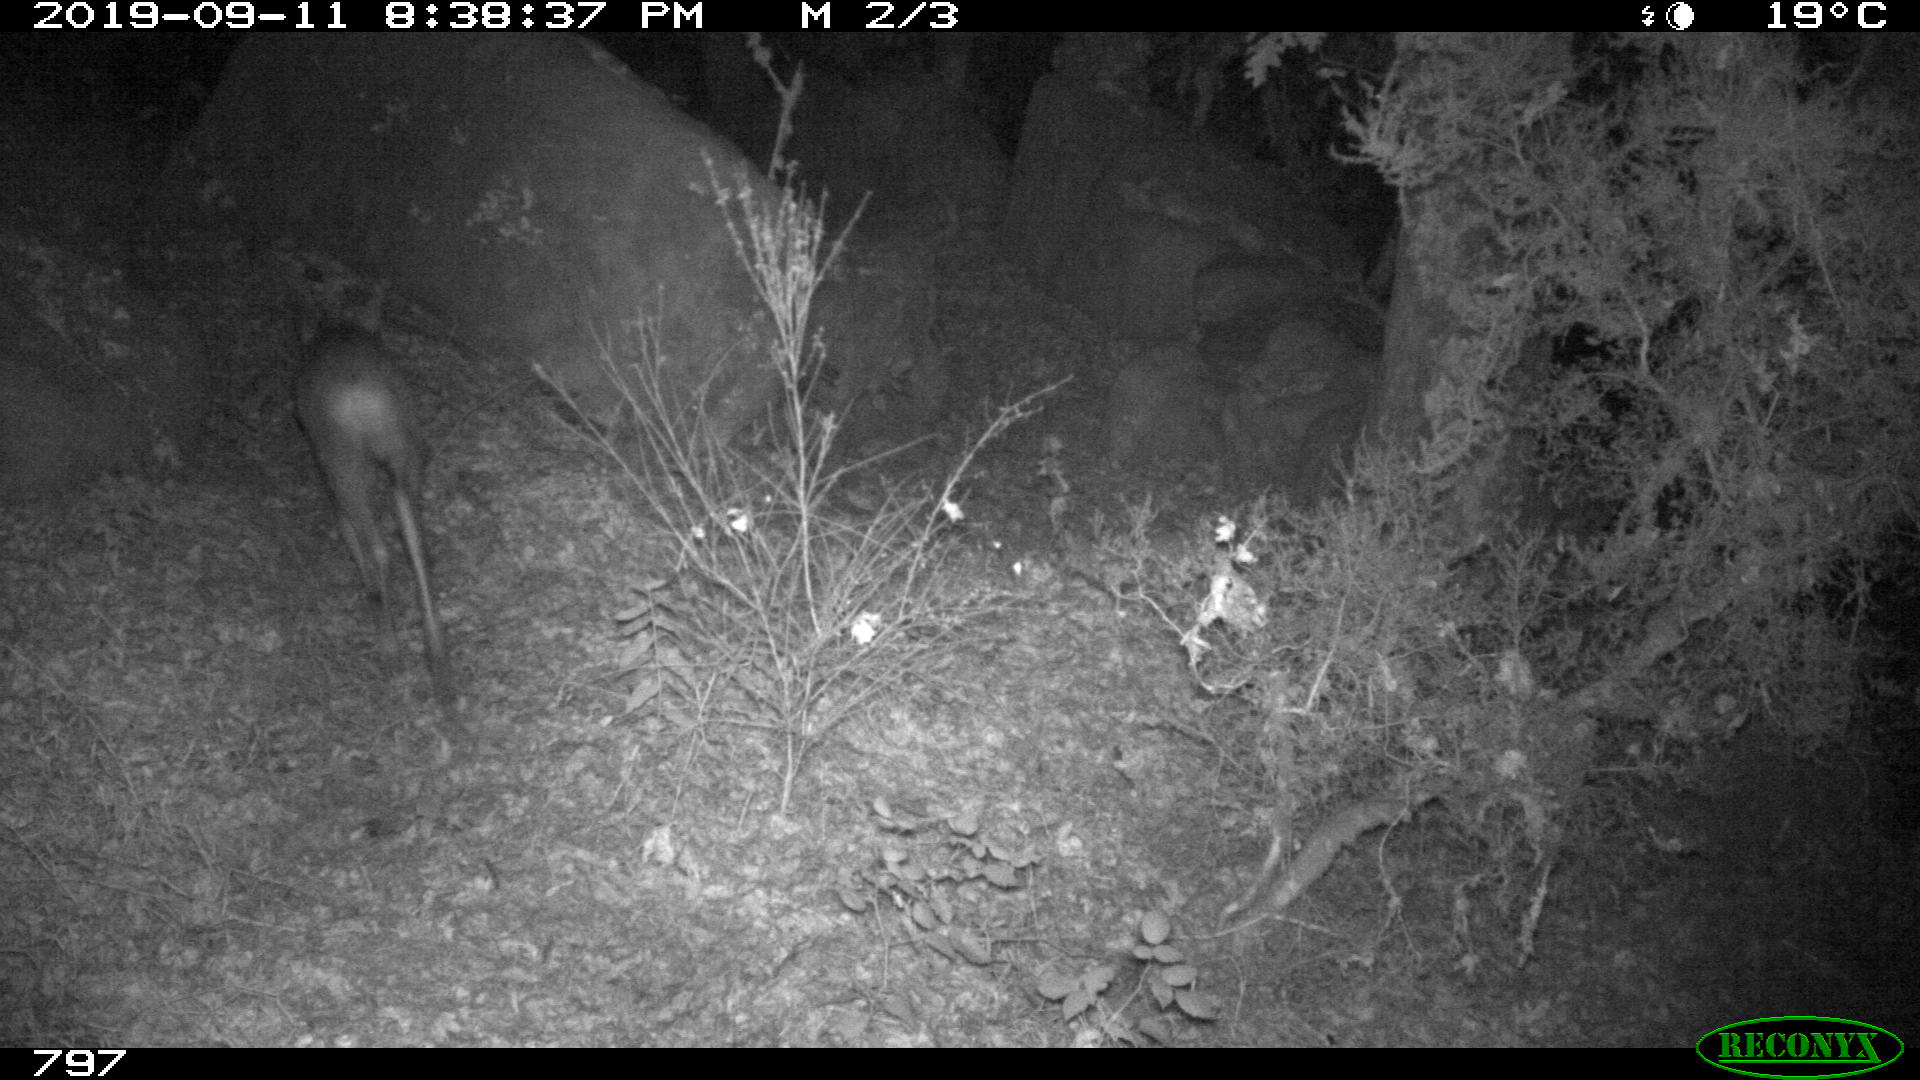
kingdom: Animalia
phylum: Chordata
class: Mammalia
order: Artiodactyla
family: Cervidae
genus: Capreolus
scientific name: Capreolus capreolus
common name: Western roe deer
